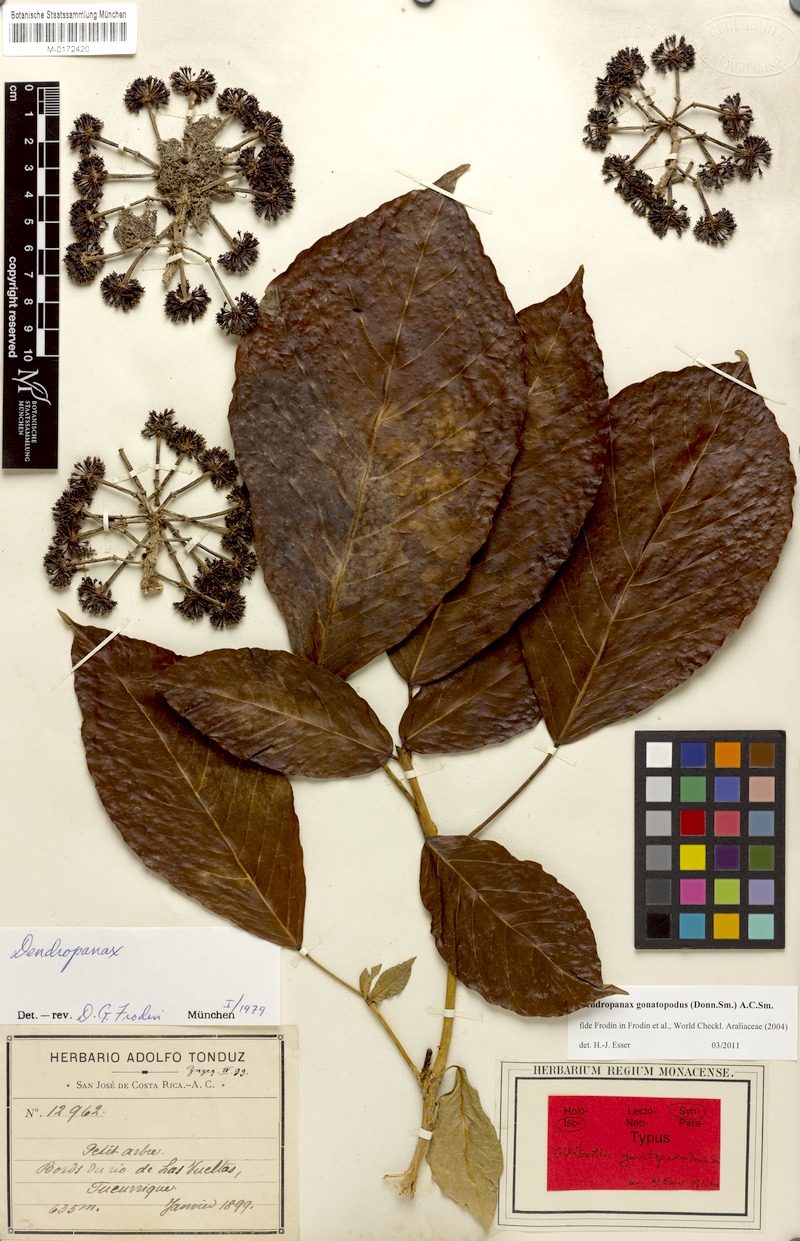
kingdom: Plantae
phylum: Tracheophyta
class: Magnoliopsida
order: Apiales
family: Araliaceae
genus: Dendropanax
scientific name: Dendropanax gonatopodus
